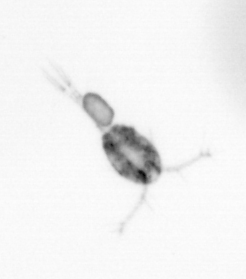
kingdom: Animalia
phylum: Arthropoda
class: Copepoda
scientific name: Copepoda
